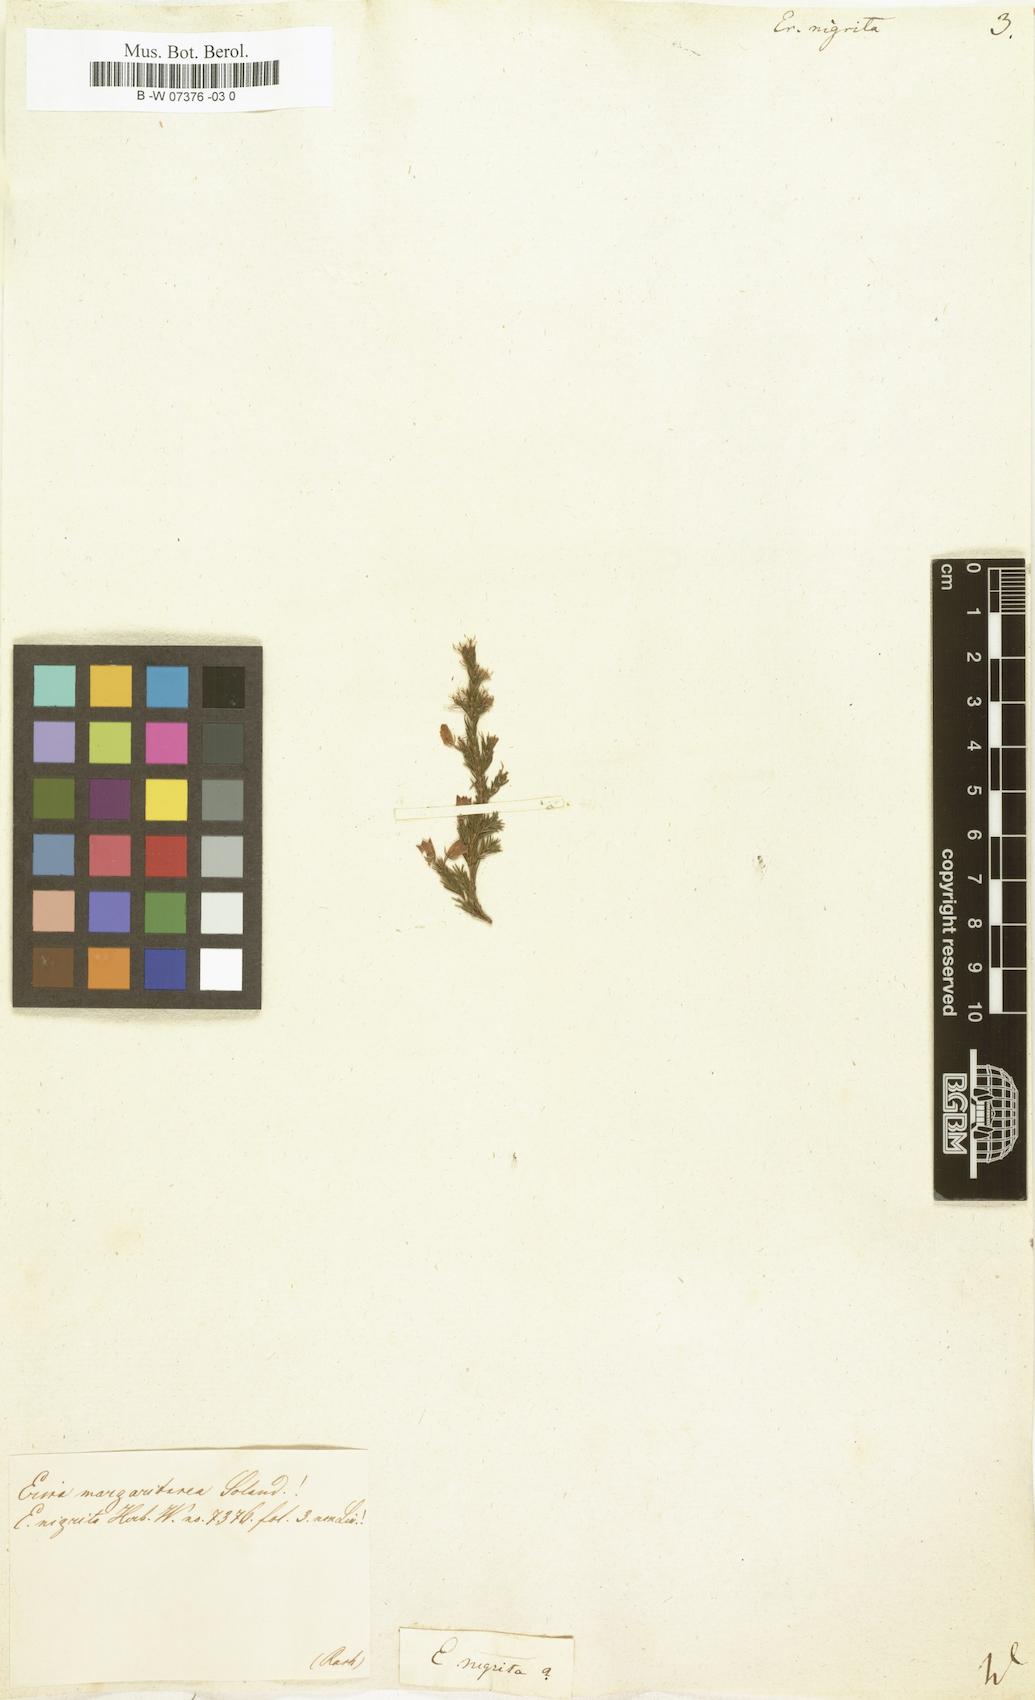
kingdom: Plantae
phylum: Tracheophyta
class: Magnoliopsida
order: Ericales
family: Ericaceae
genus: Erica
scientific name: Erica calycina
